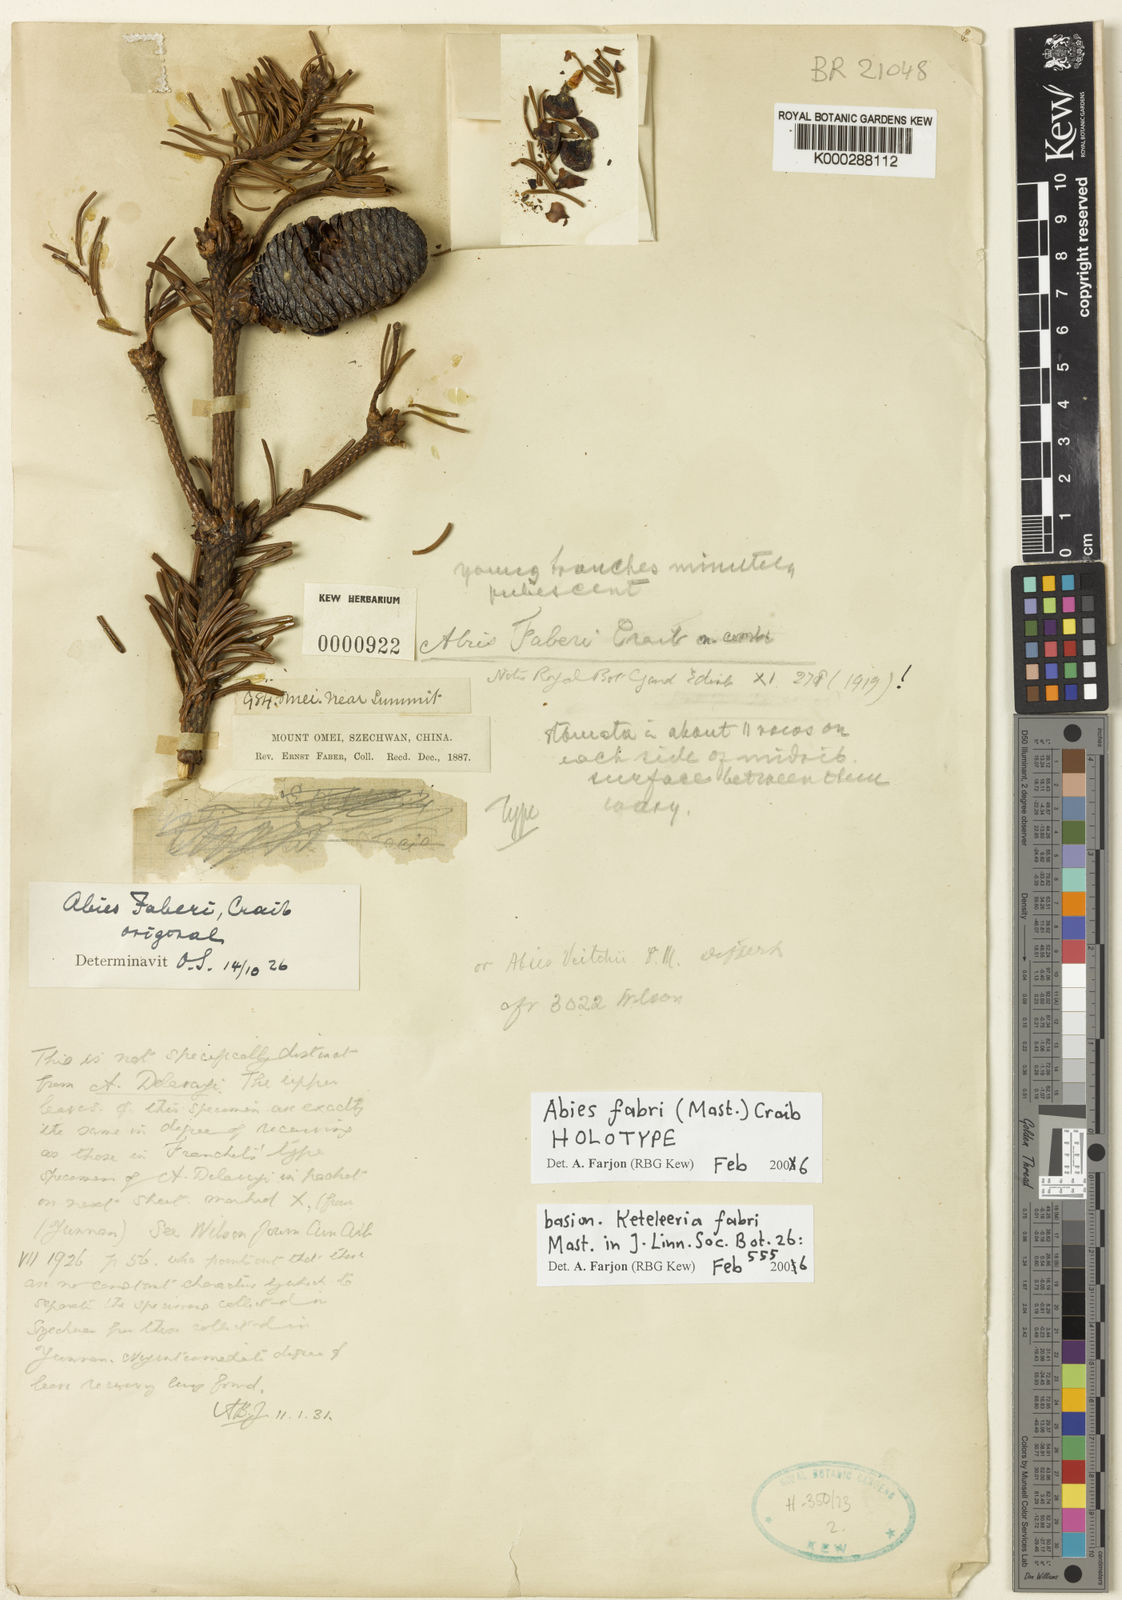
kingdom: Plantae
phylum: Tracheophyta
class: Pinopsida
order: Pinales
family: Pinaceae
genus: Abies
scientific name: Abies fabri
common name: Faber’s fir
